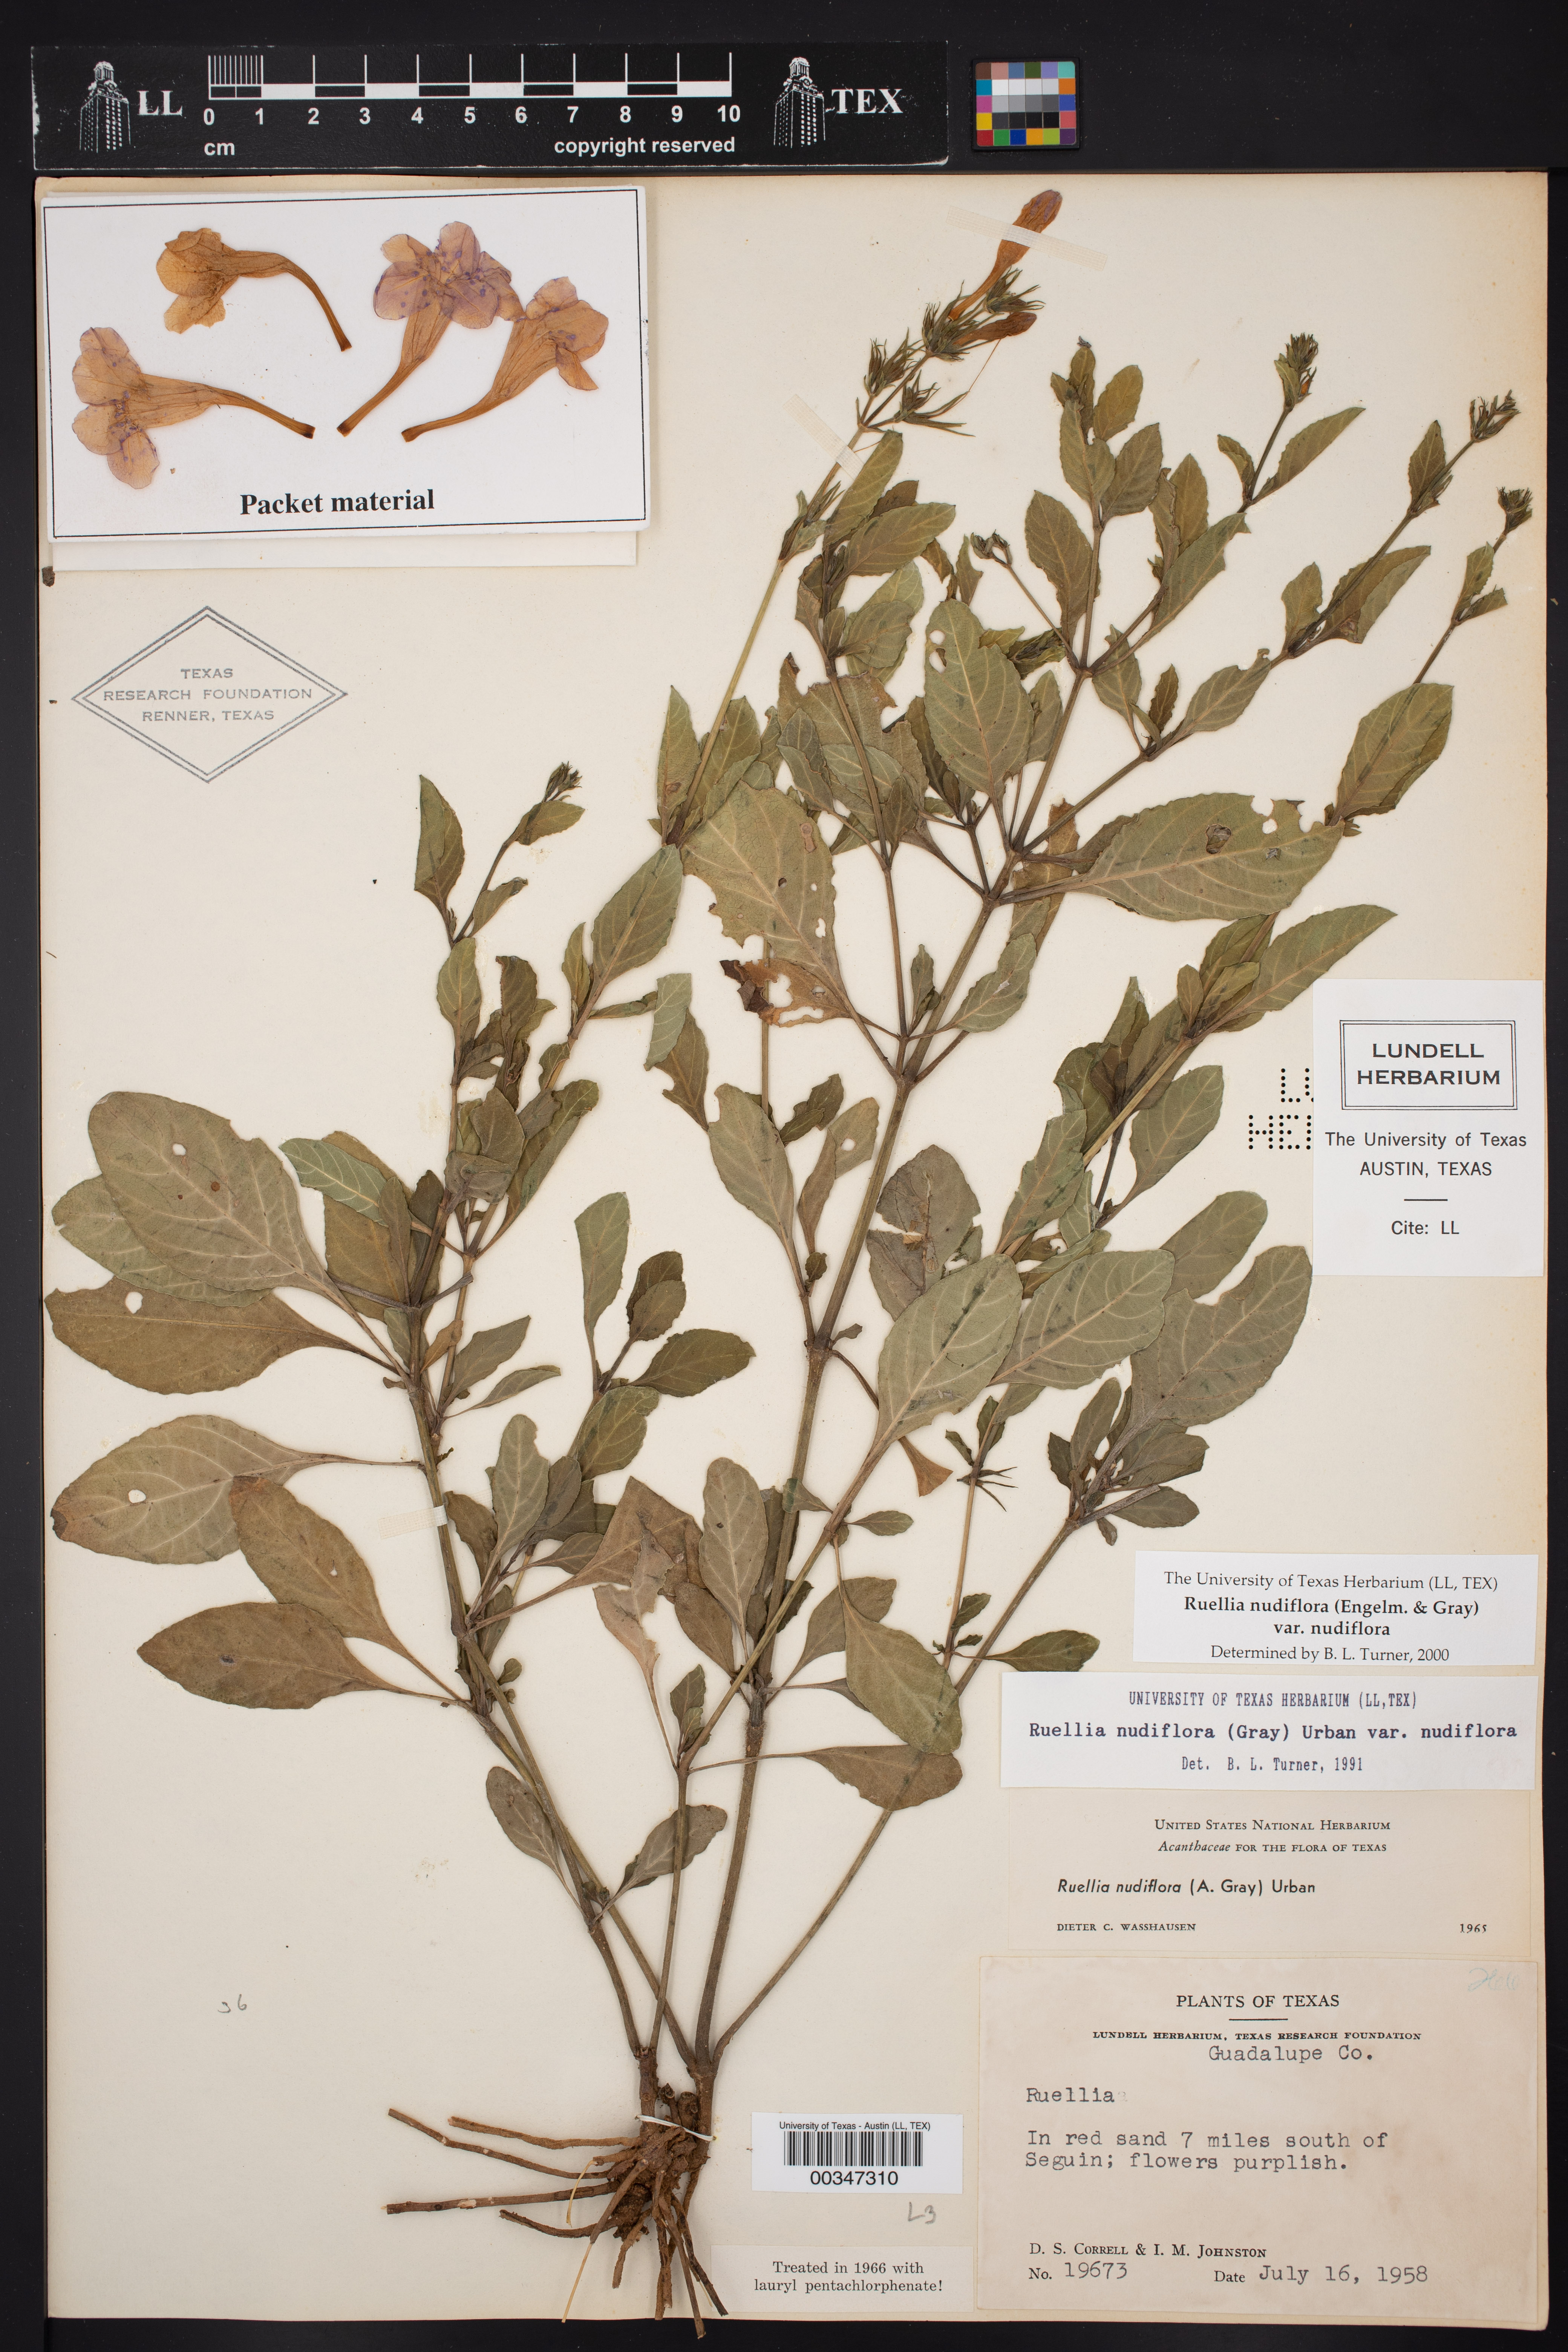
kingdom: Plantae
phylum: Tracheophyta
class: Magnoliopsida
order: Lamiales
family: Acanthaceae
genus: Ruellia
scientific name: Ruellia ciliatiflora
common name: Hairyflower wild petunia
